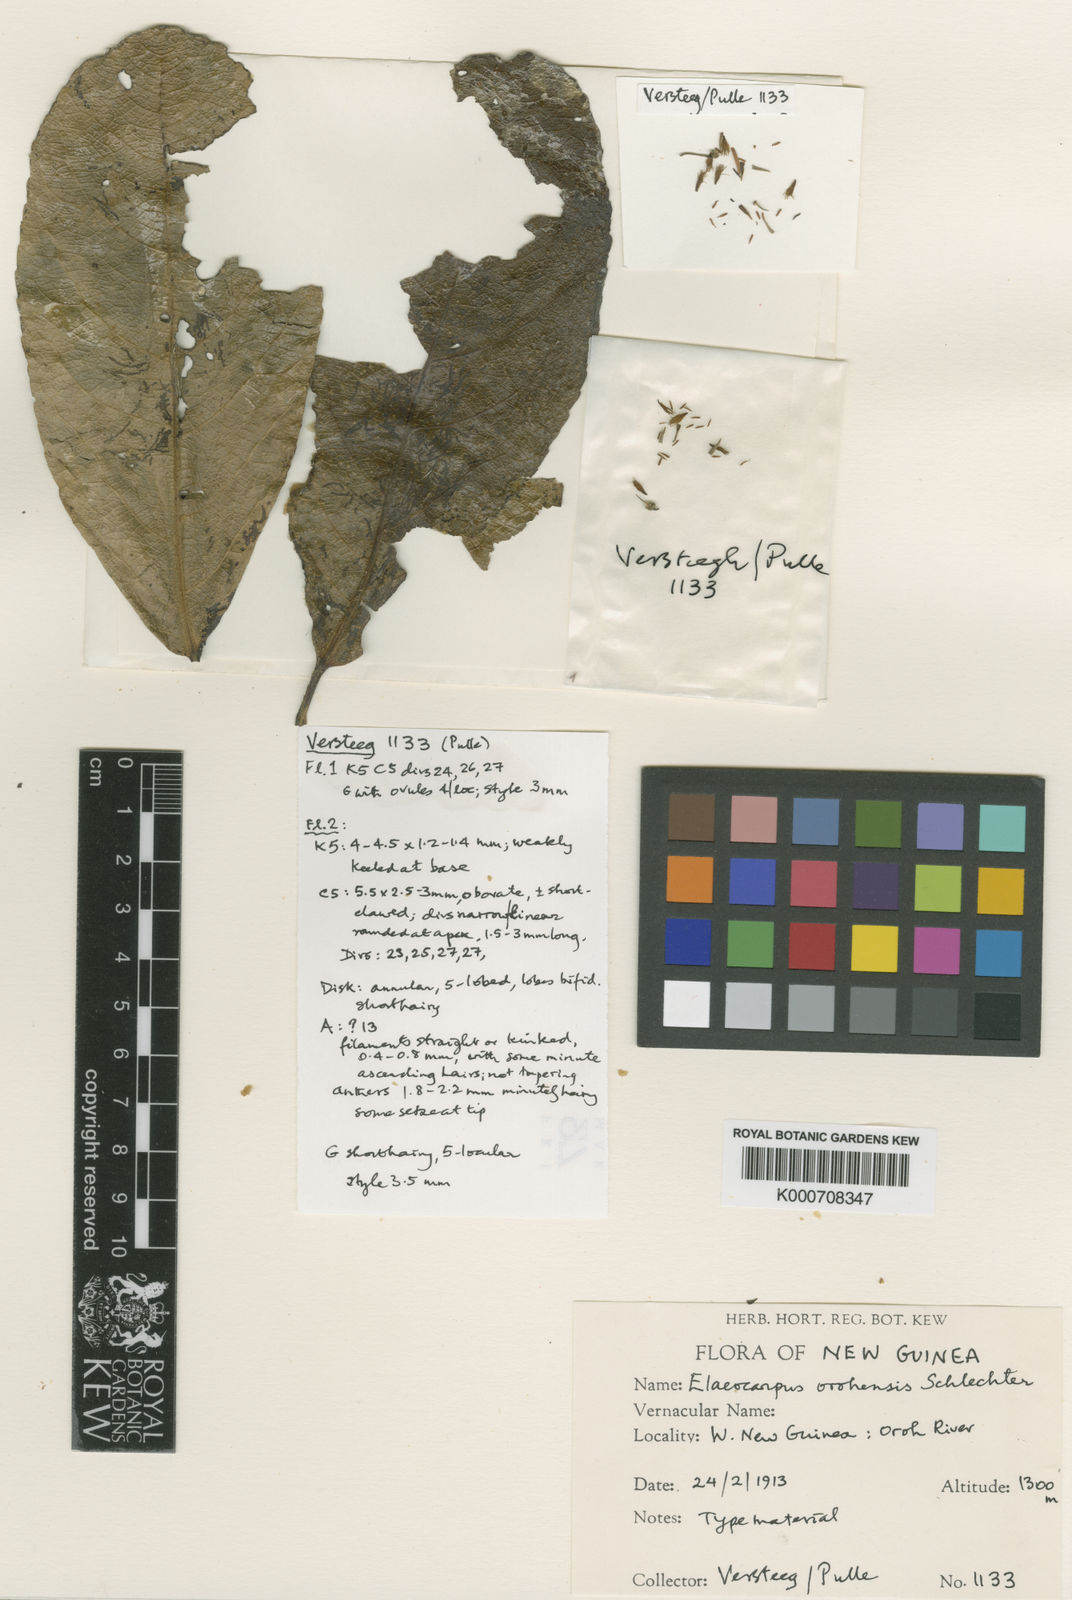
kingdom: Plantae
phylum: Tracheophyta
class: Magnoliopsida
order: Oxalidales
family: Elaeocarpaceae
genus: Elaeocarpus
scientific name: Elaeocarpus orohensis
